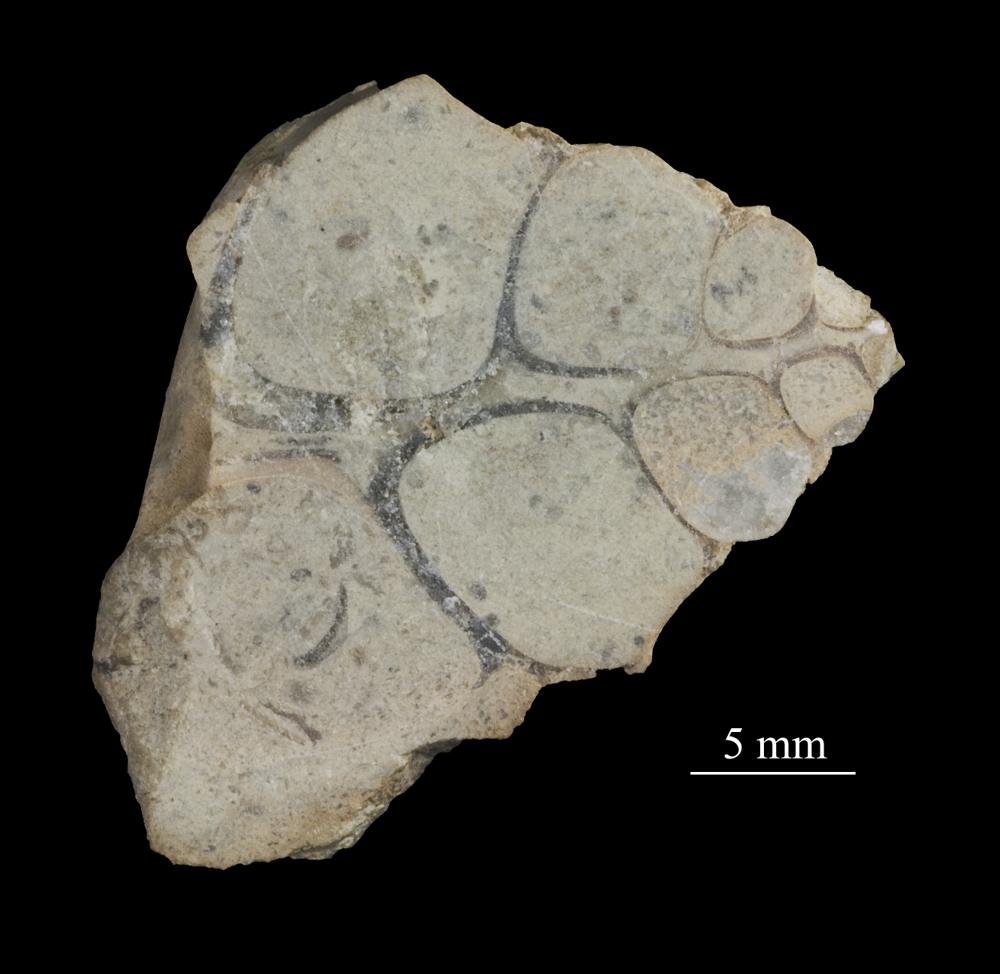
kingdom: Animalia
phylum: Mollusca
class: Gastropoda
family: Lophospiridae
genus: Loxoplocus
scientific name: Loxoplocus Turbo silurica
